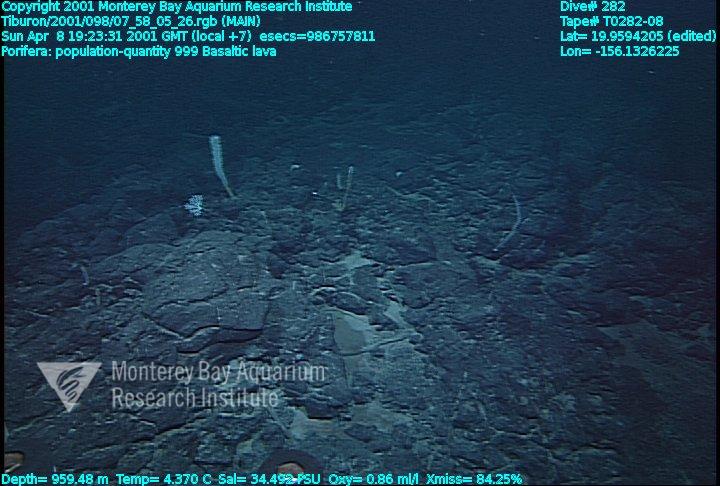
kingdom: Animalia
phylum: Porifera
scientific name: Porifera
